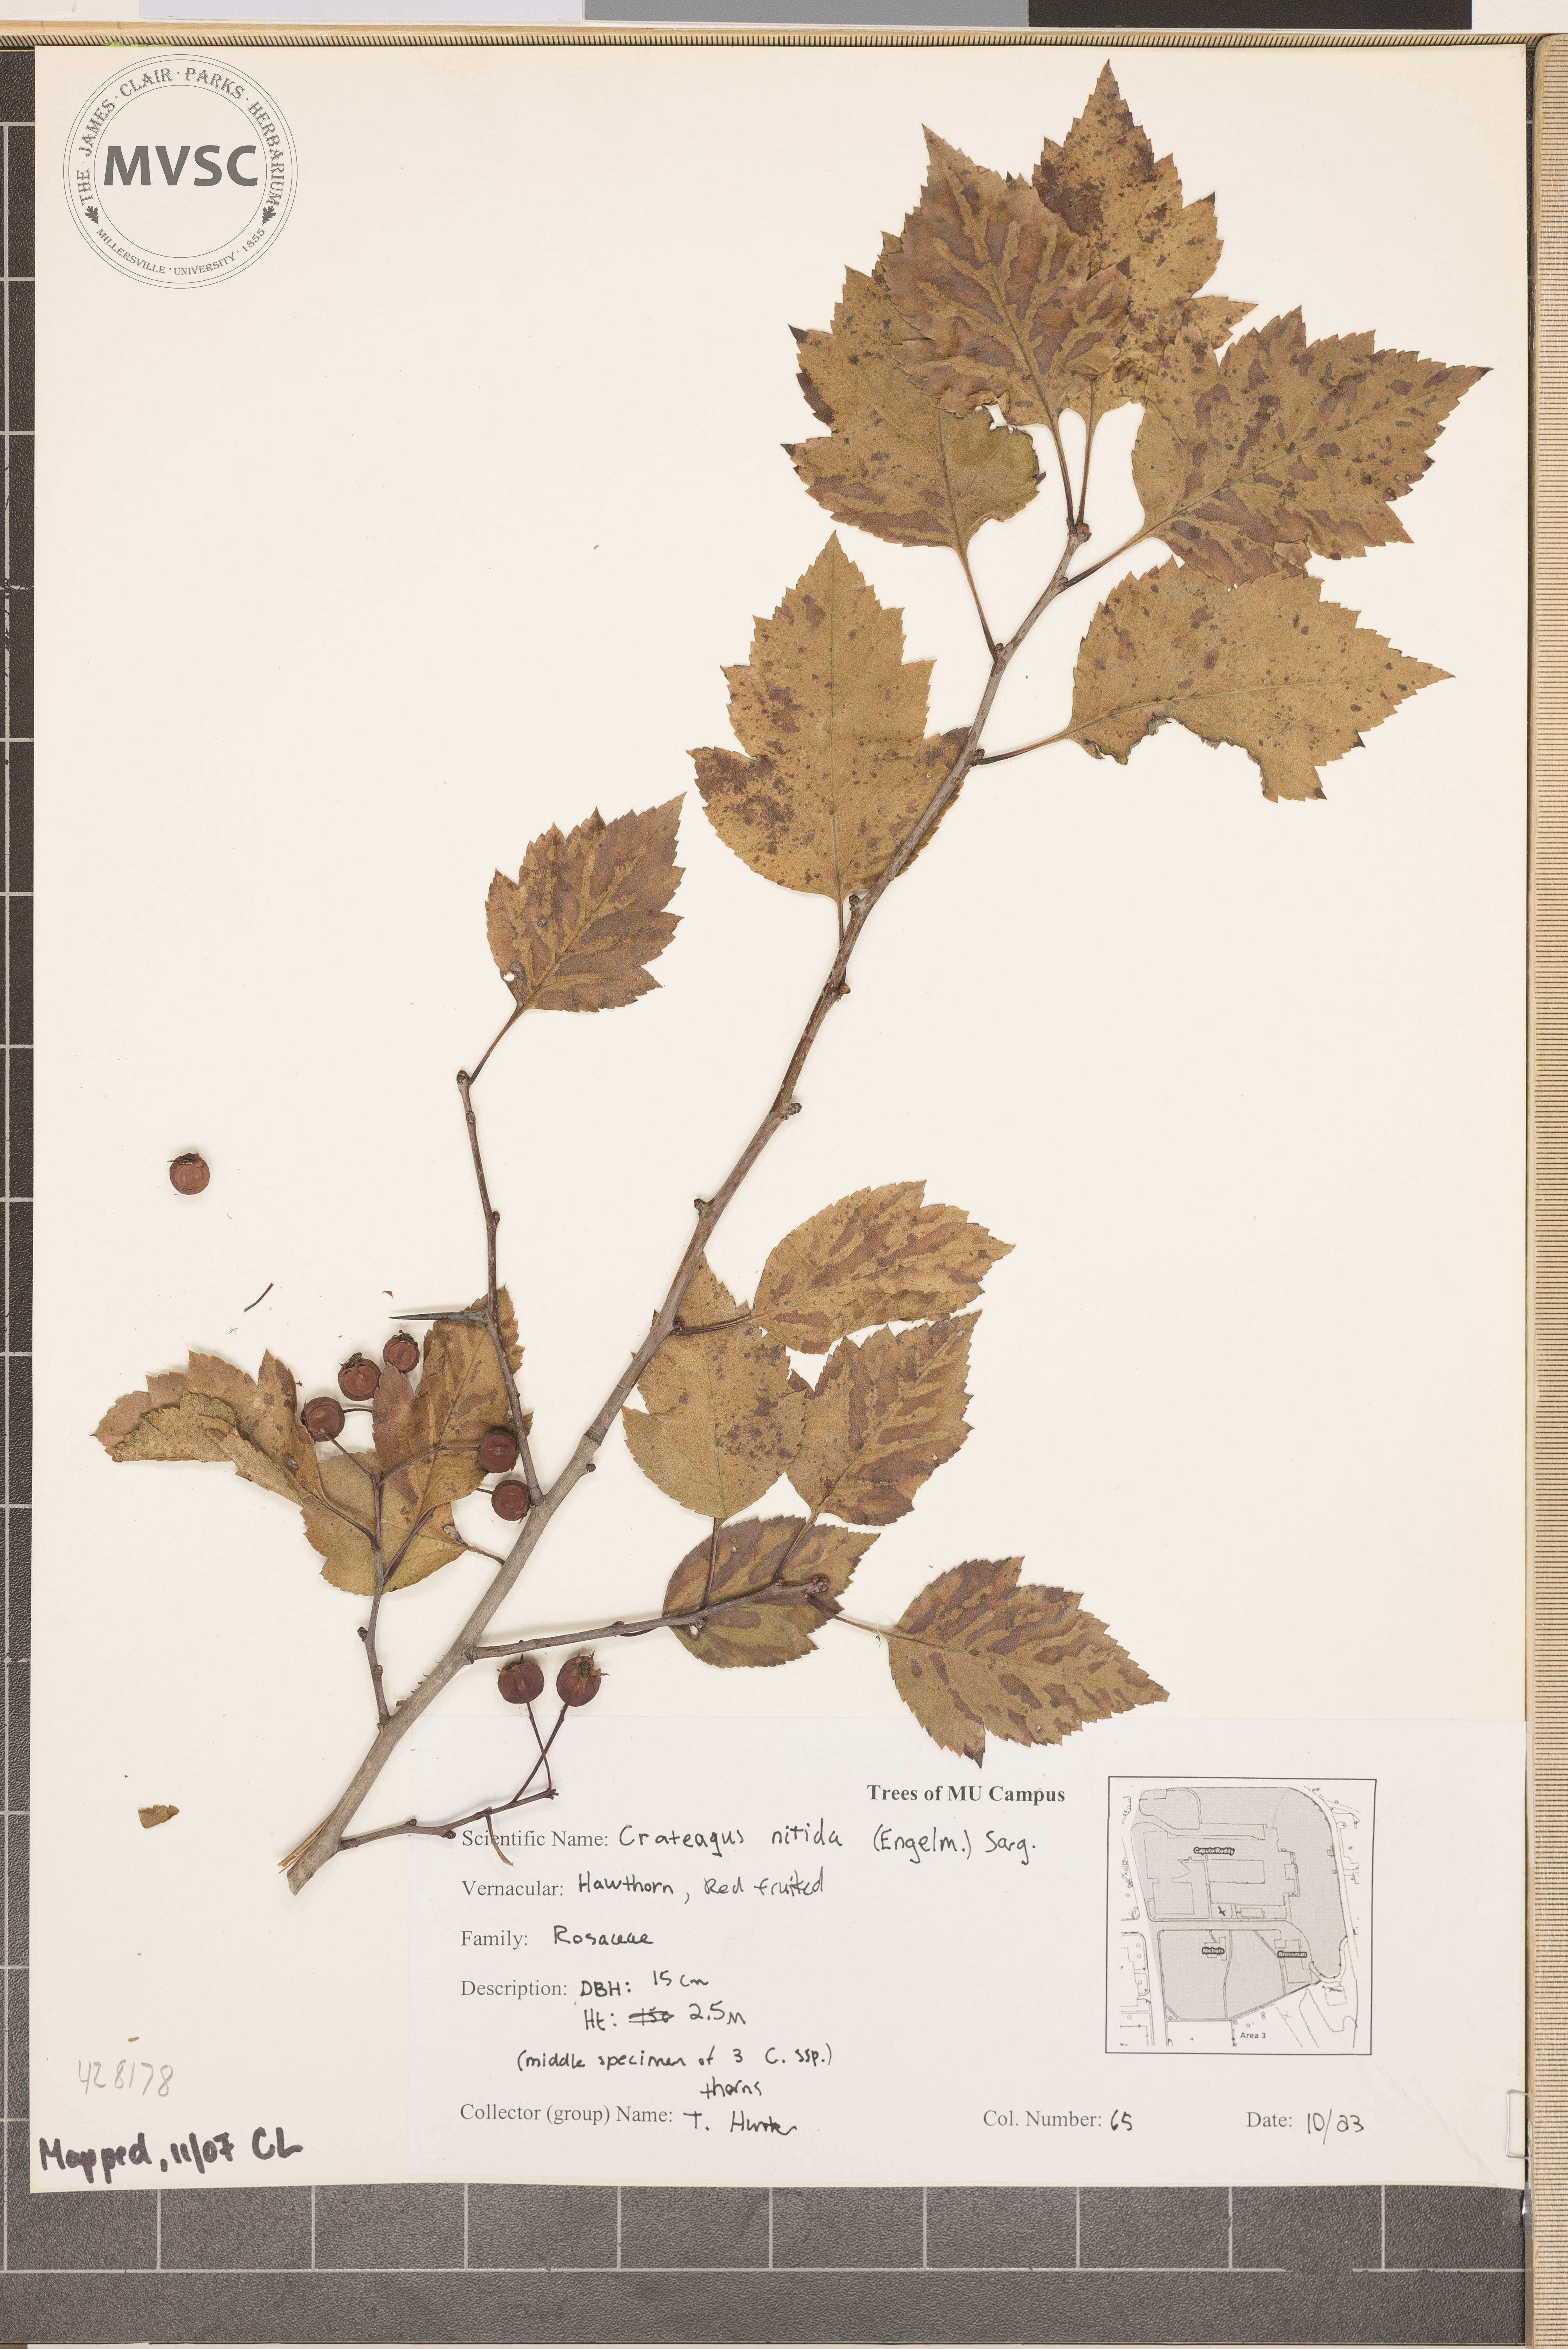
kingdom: Plantae
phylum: Tracheophyta
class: Magnoliopsida
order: Rosales
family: Rosaceae
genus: Crataegus
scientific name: Crataegus nitida
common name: Hawthorn
